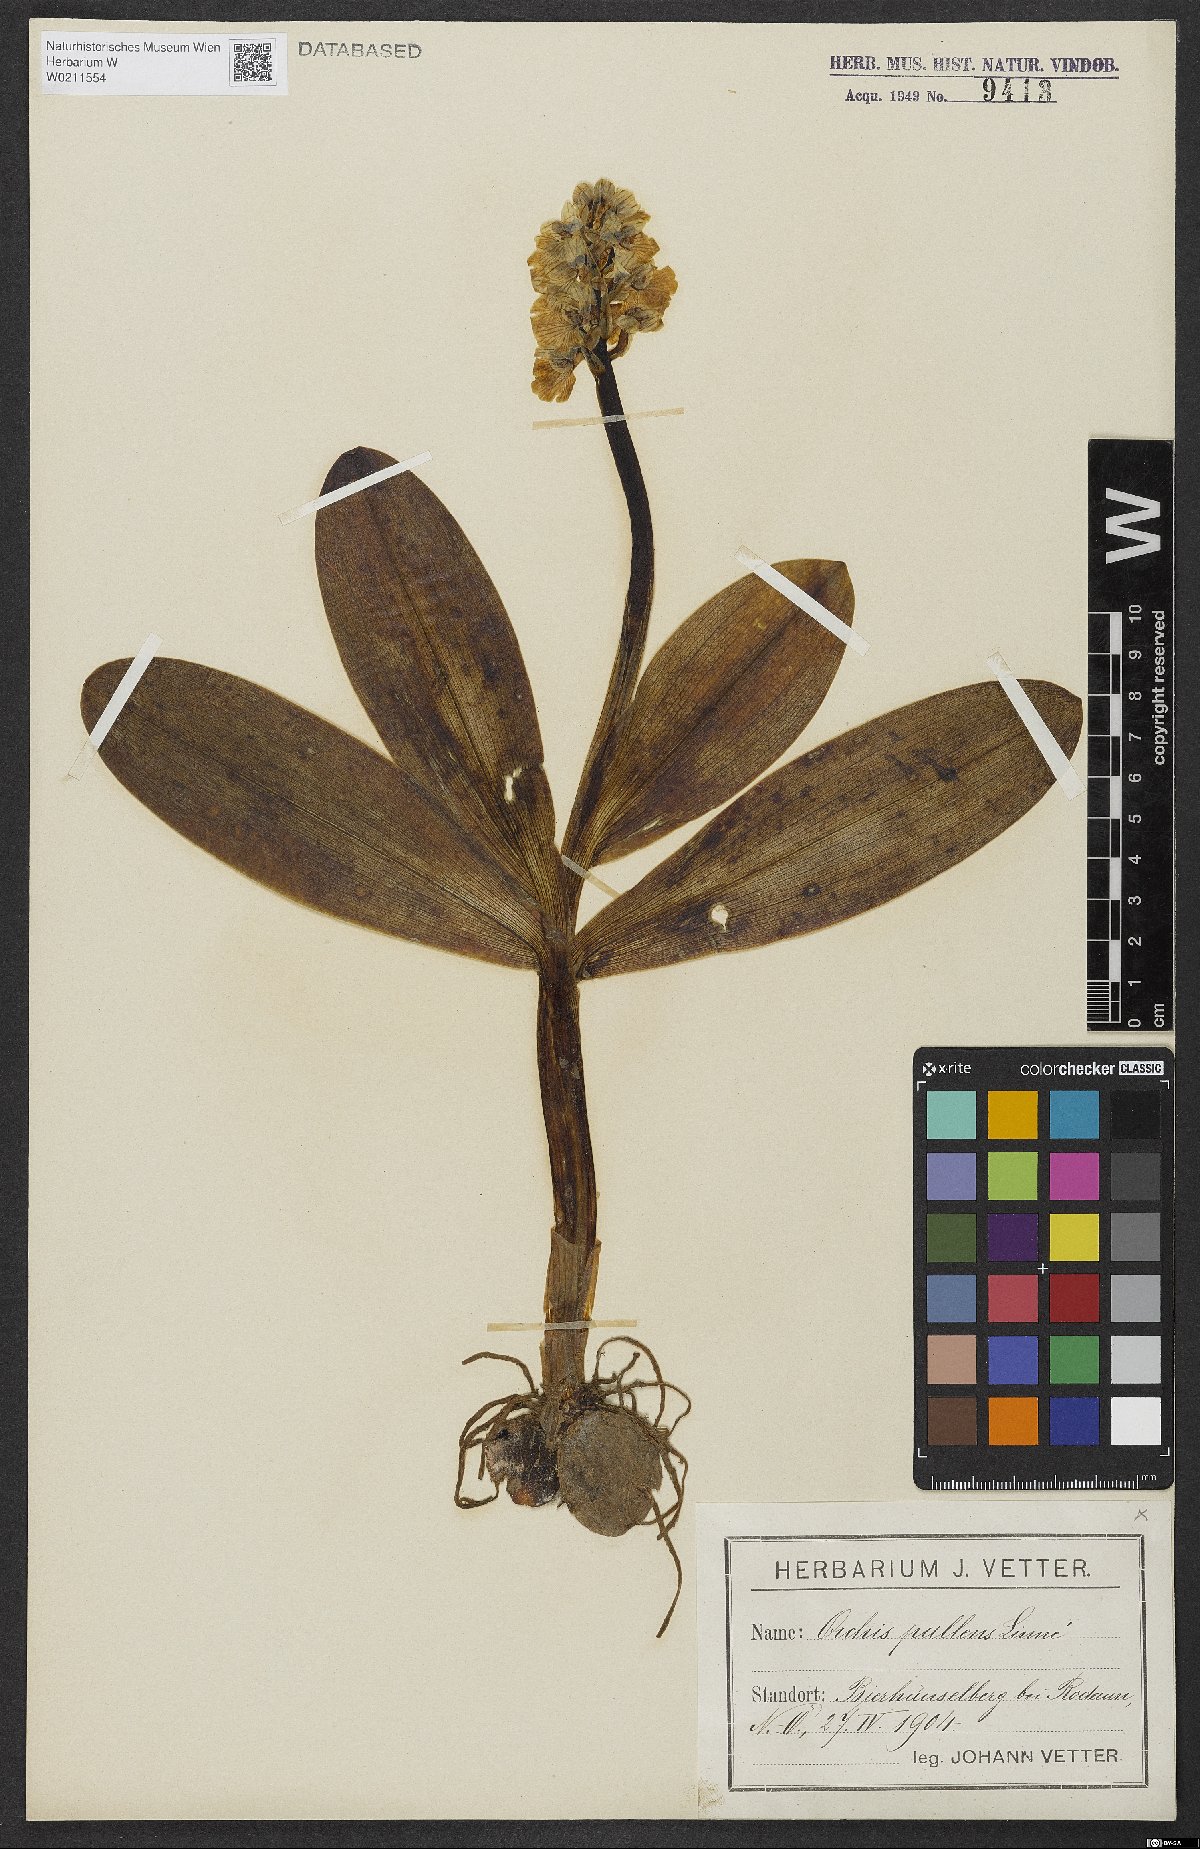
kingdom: Plantae
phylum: Tracheophyta
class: Liliopsida
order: Asparagales
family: Orchidaceae
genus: Orchis
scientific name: Orchis pallens
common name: Pale-flowered orchid
